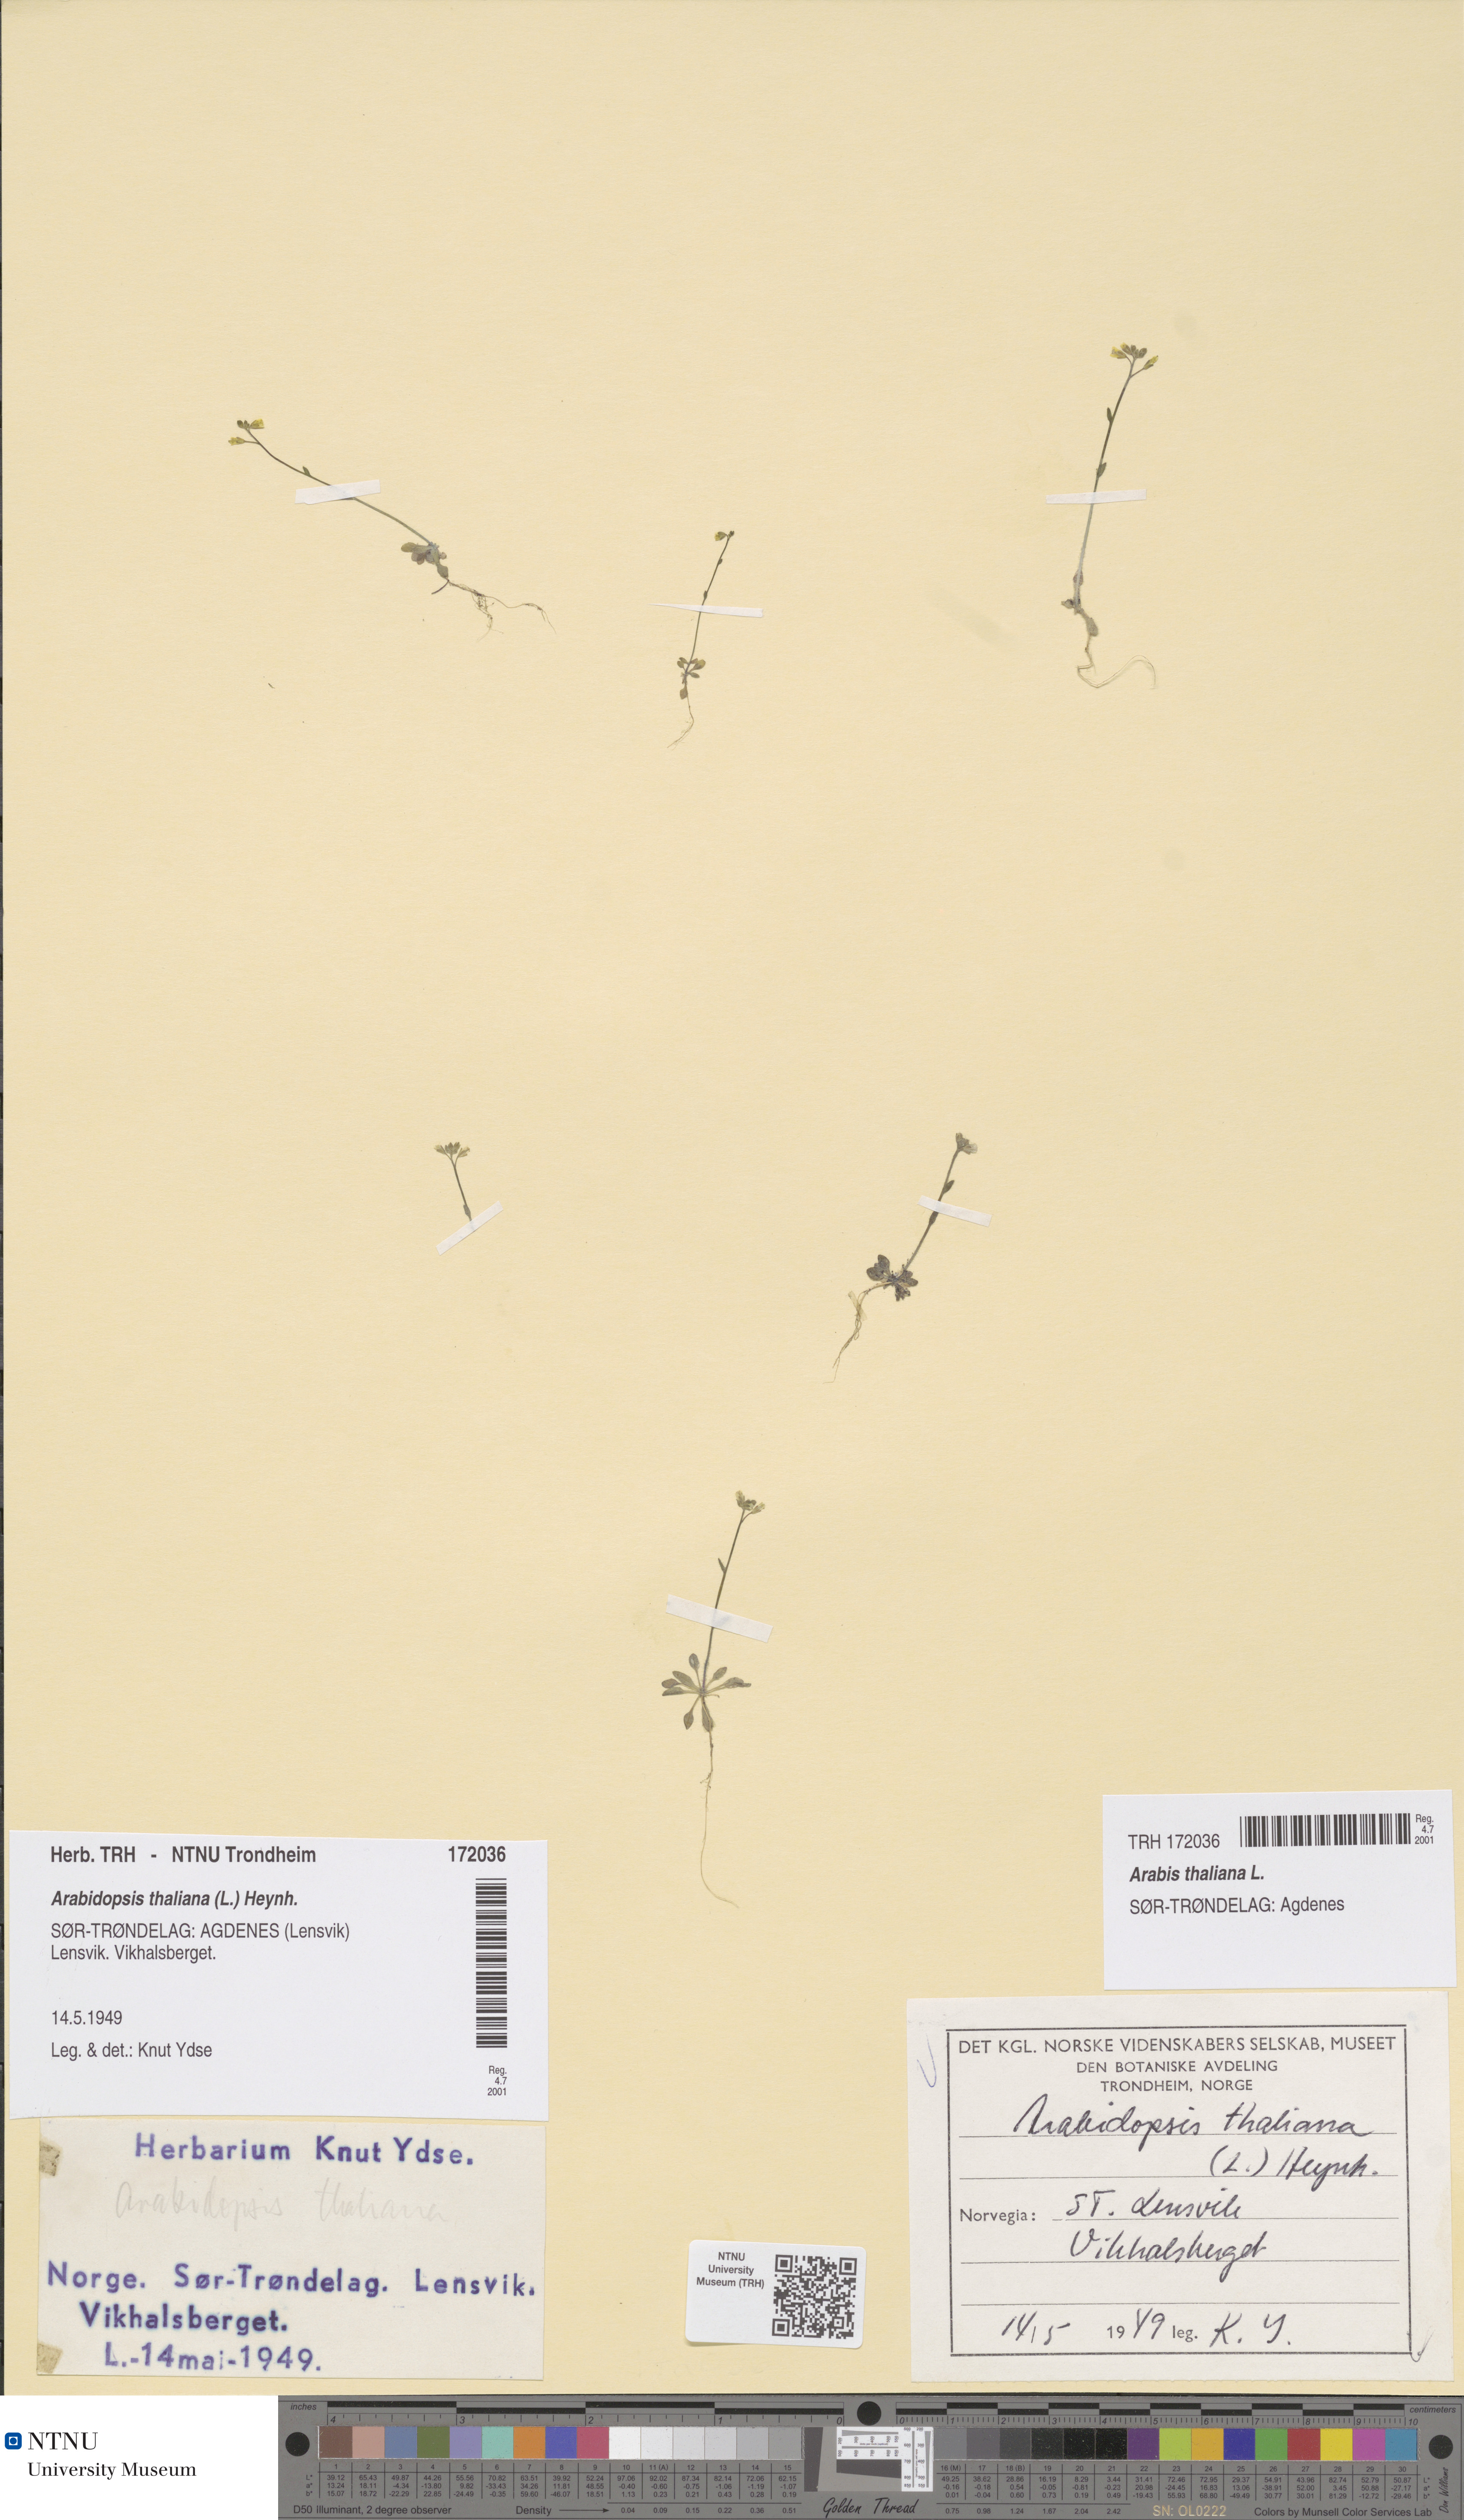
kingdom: Plantae
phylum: Tracheophyta
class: Magnoliopsida
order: Brassicales
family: Brassicaceae
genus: Arabidopsis
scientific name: Arabidopsis thaliana
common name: Thale cress
